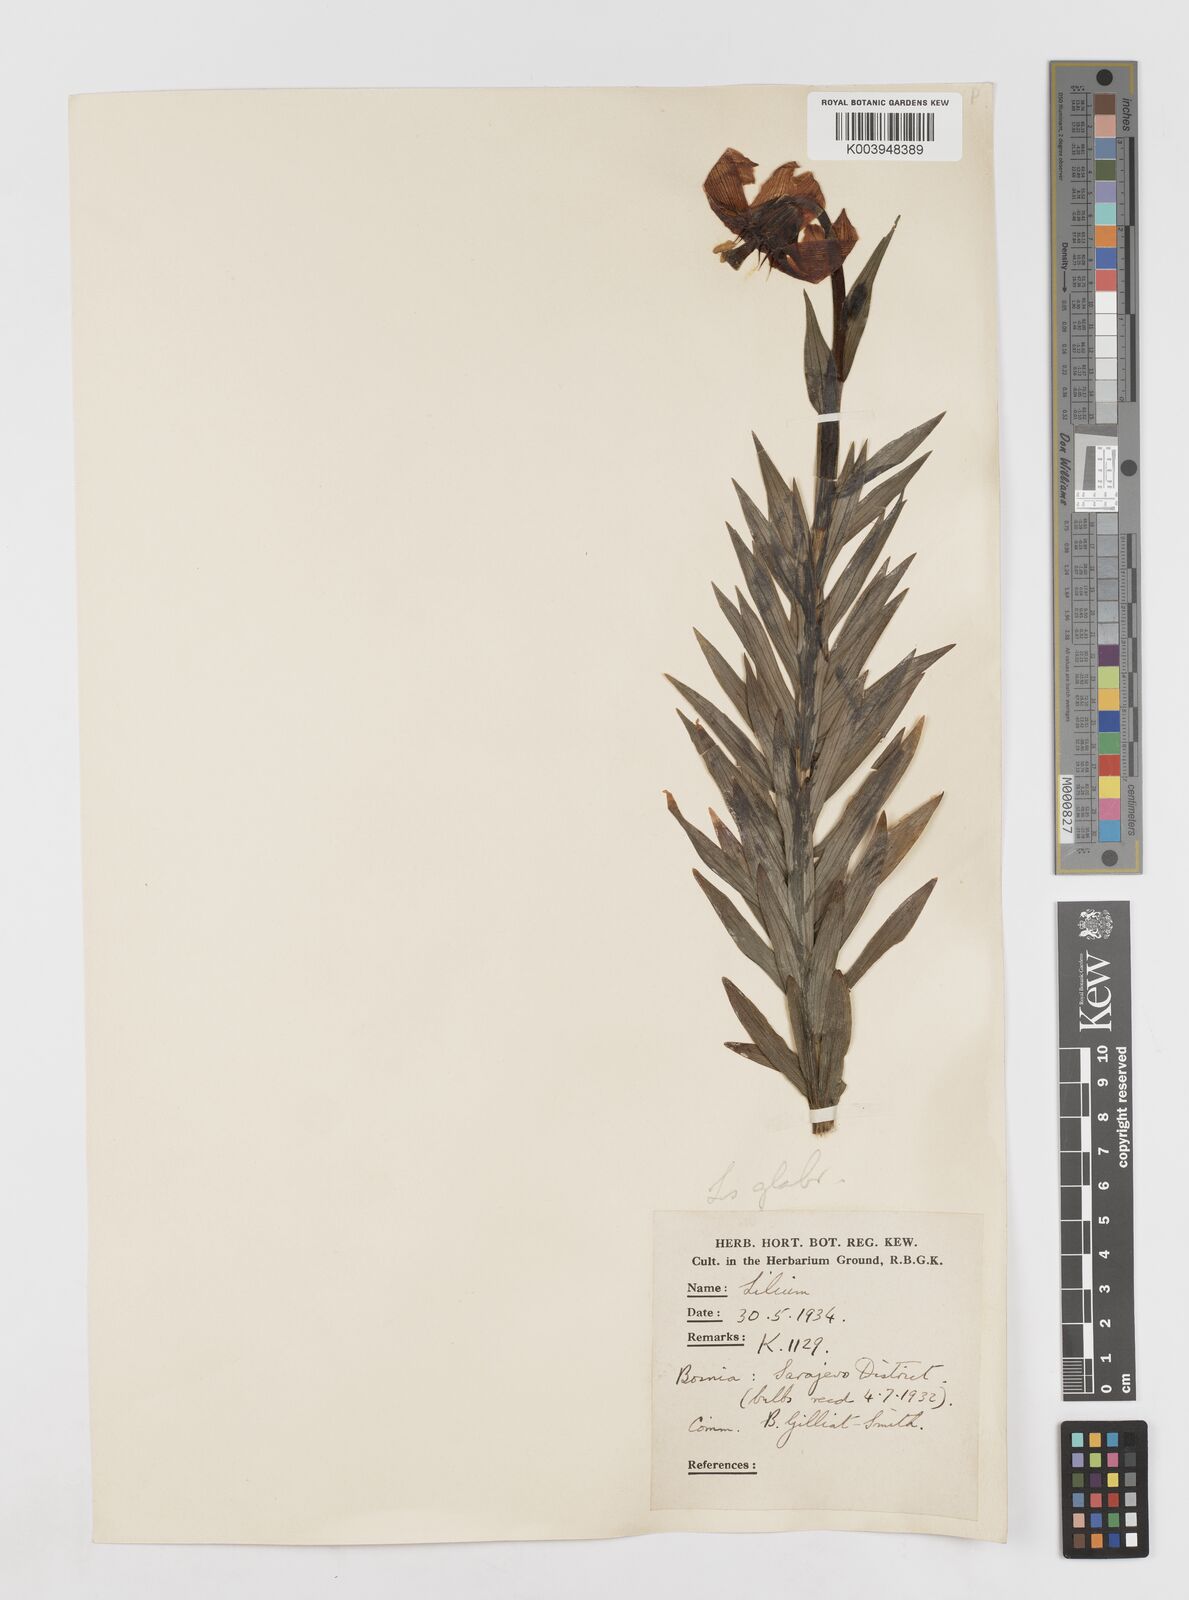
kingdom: Plantae
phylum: Tracheophyta
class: Liliopsida
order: Liliales
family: Liliaceae
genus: Lilium
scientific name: Lilium bosniacum
